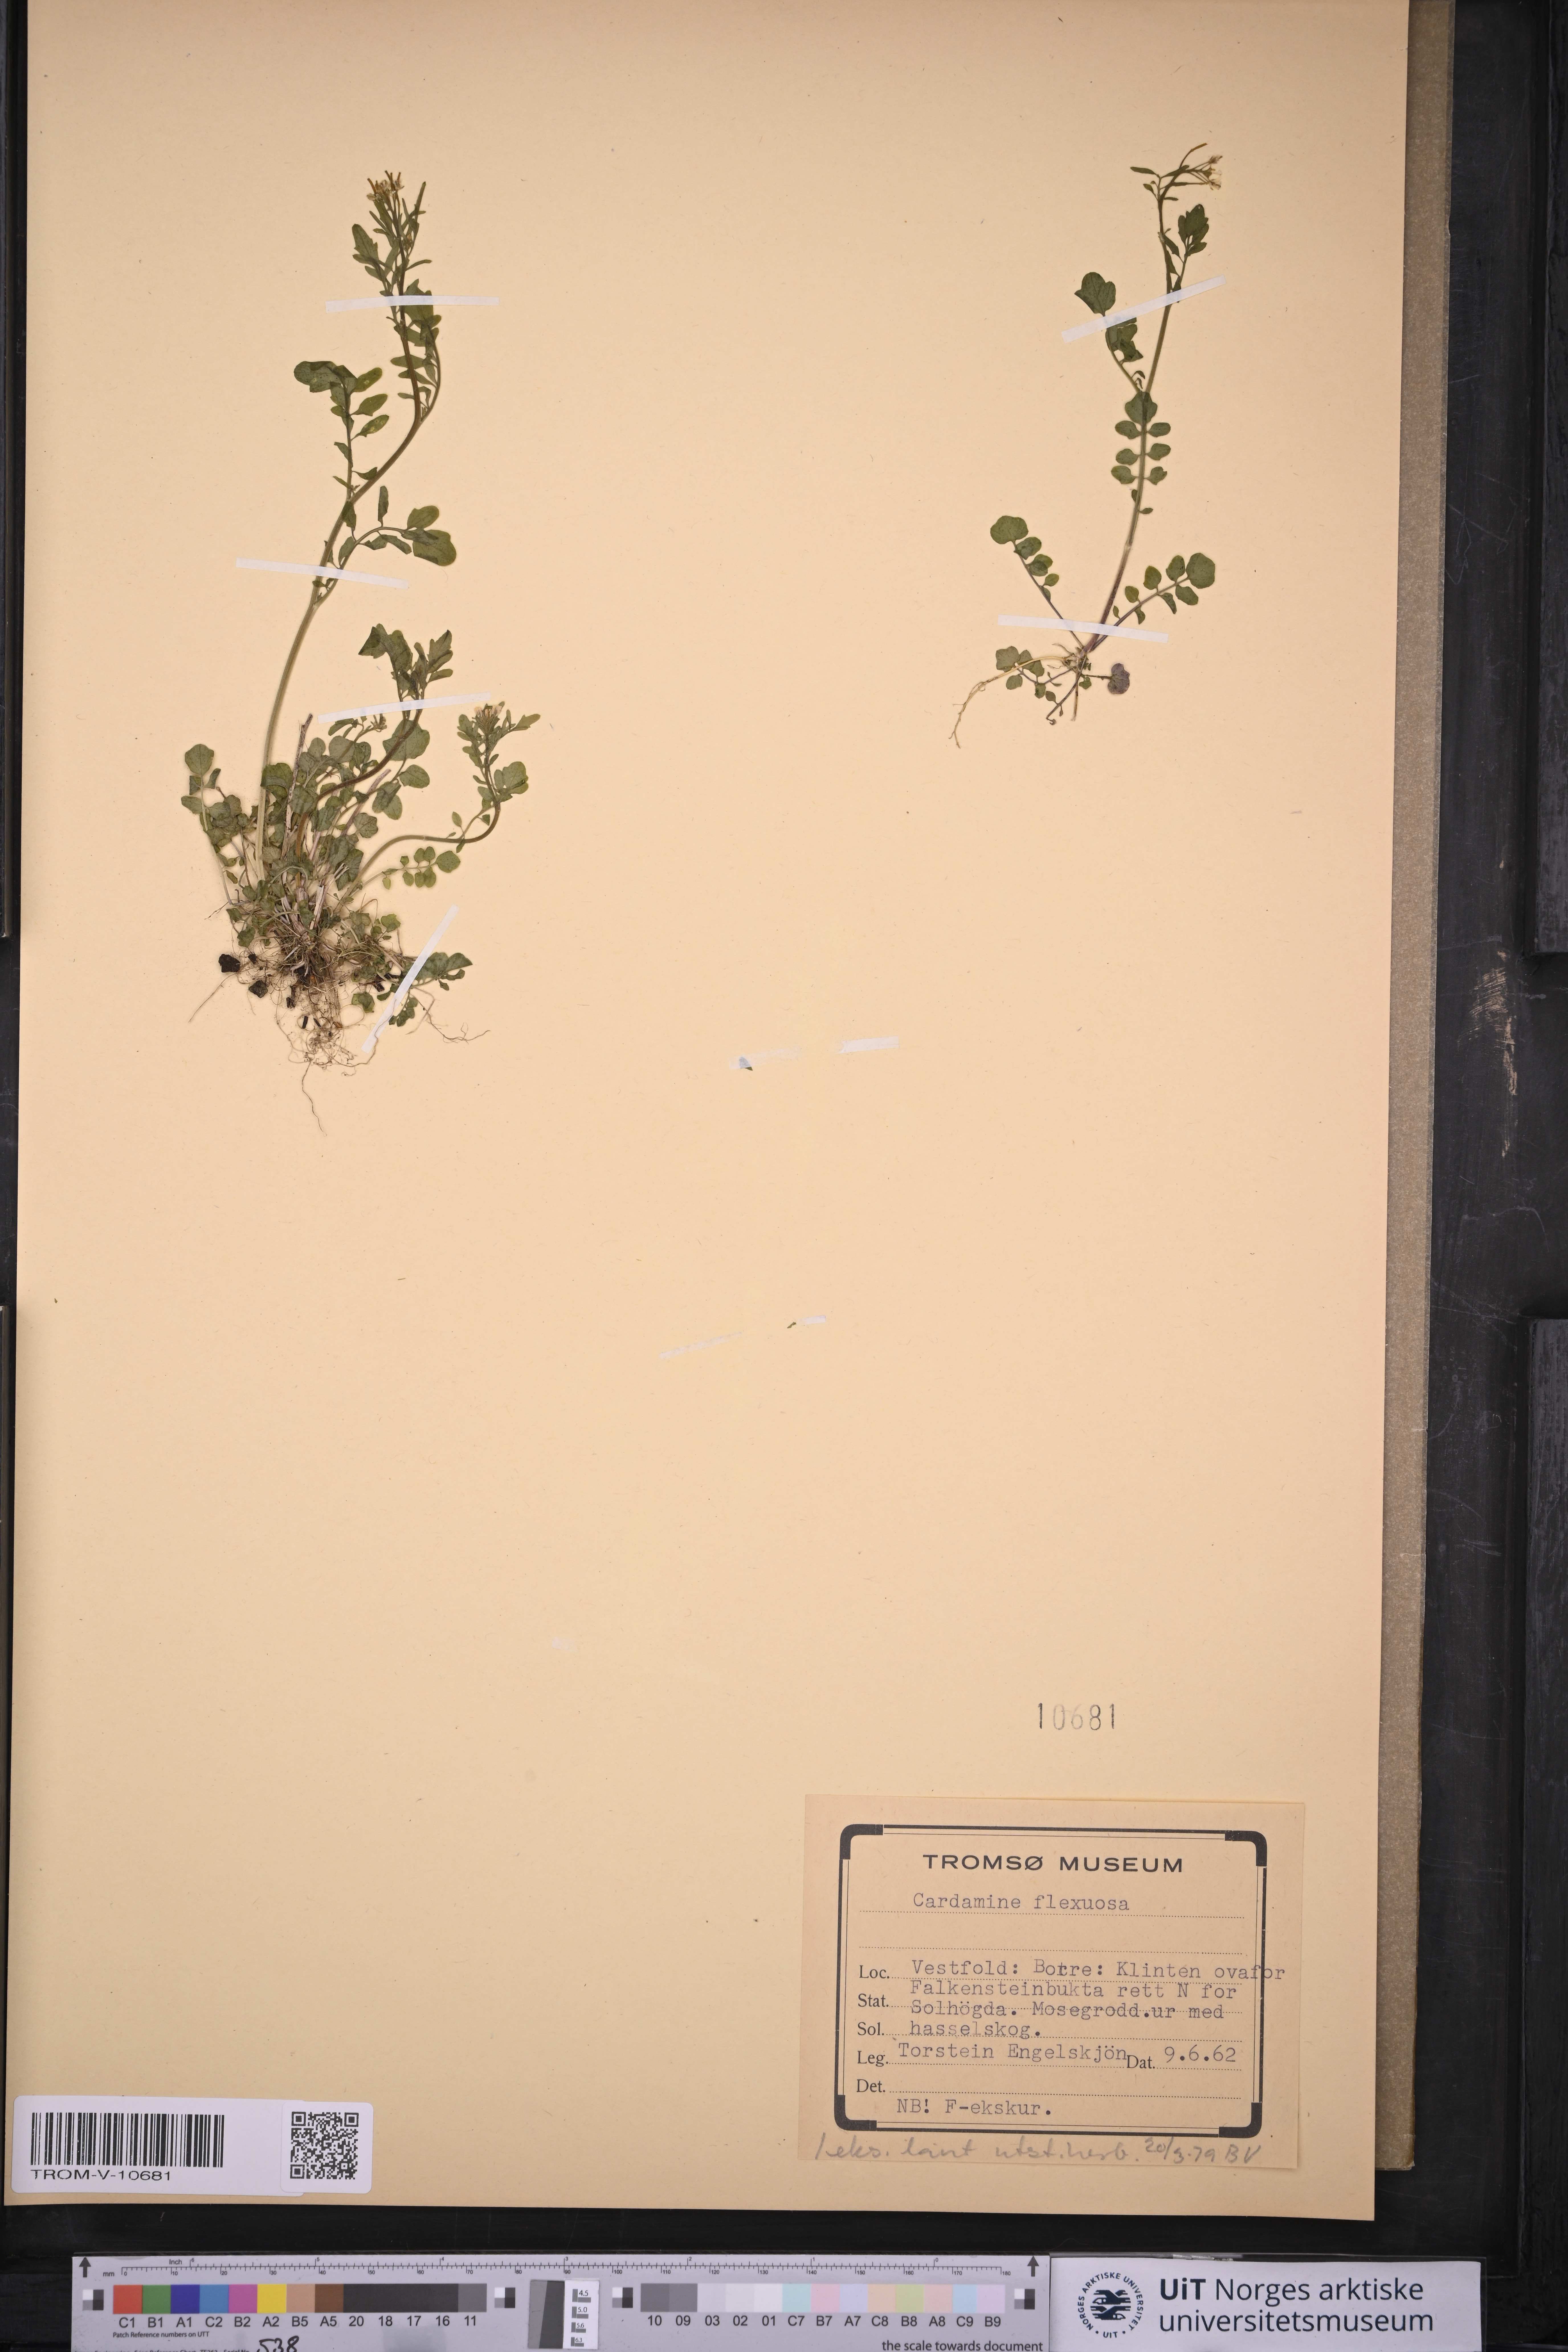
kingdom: Plantae
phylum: Tracheophyta
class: Magnoliopsida
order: Brassicales
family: Brassicaceae
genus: Cardamine
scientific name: Cardamine flexuosa
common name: Woodland bittercress
